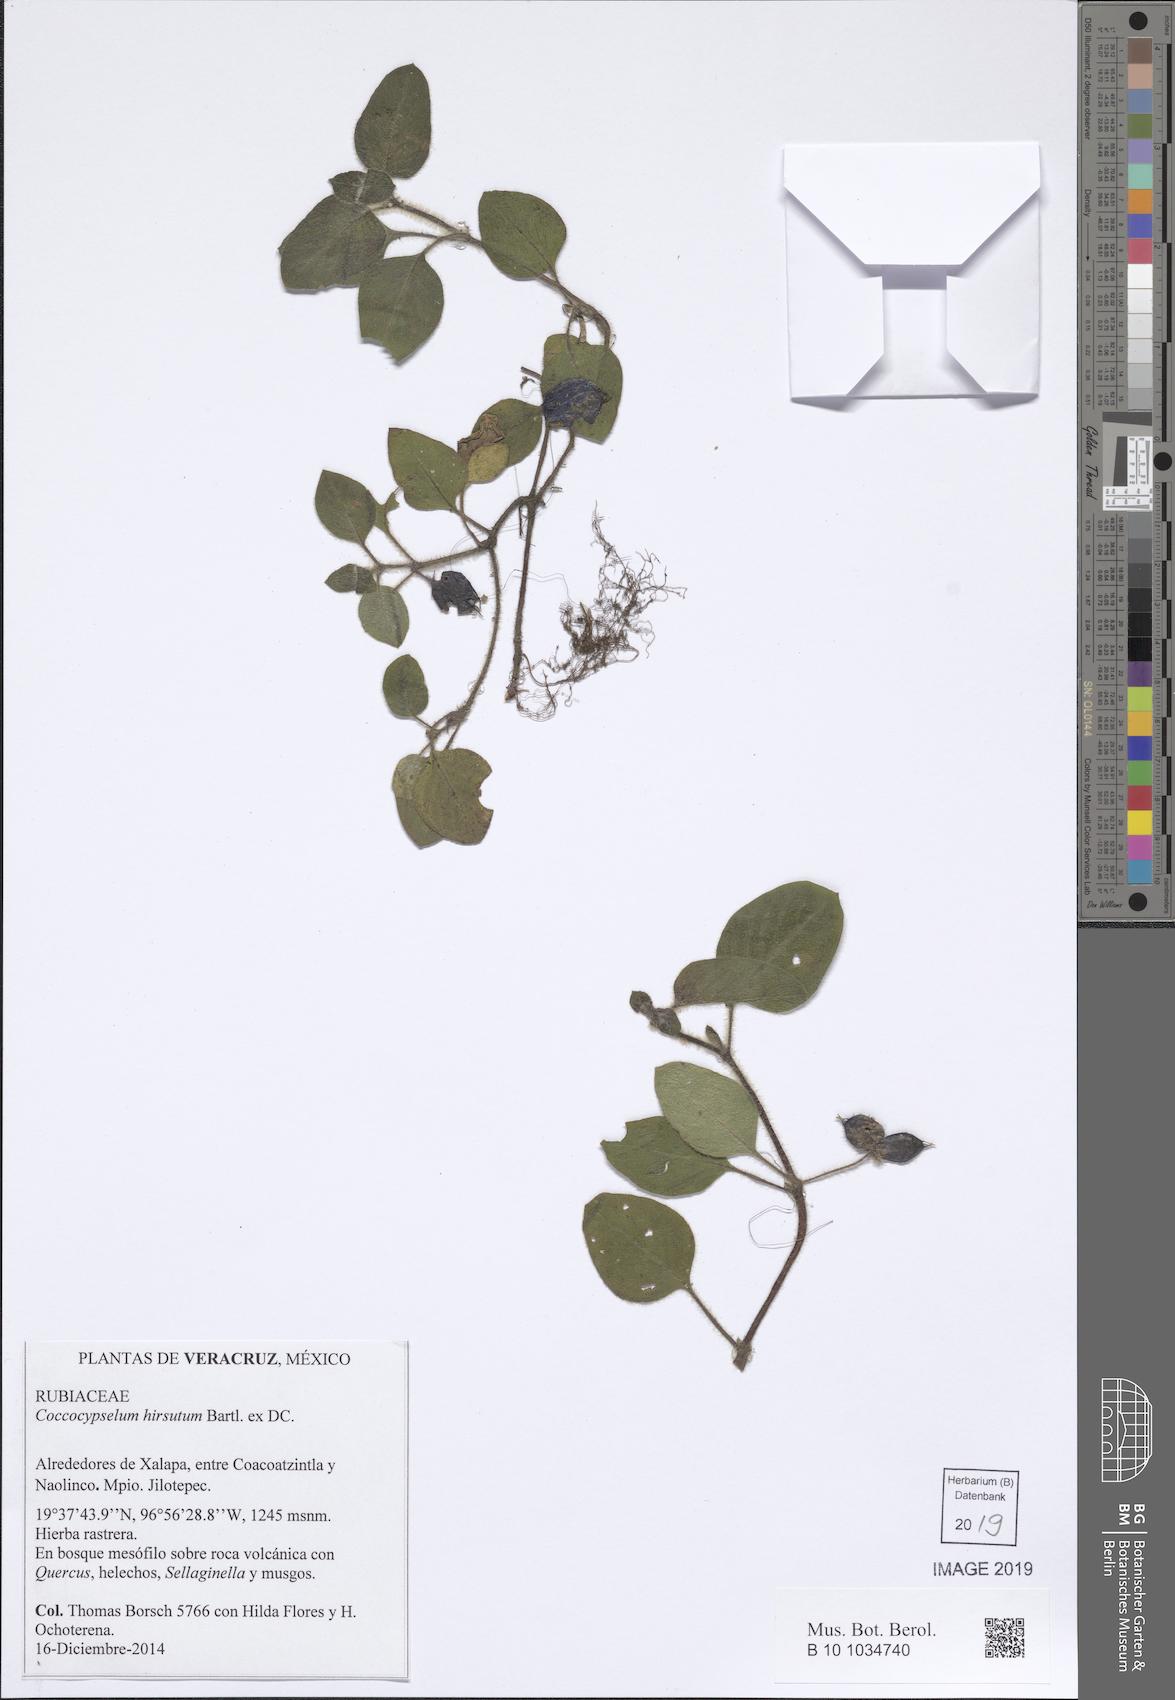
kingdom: Plantae
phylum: Tracheophyta
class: Magnoliopsida
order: Gentianales
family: Rubiaceae
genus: Coccocypselum
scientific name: Coccocypselum hirsutum
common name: Yerba de guava
